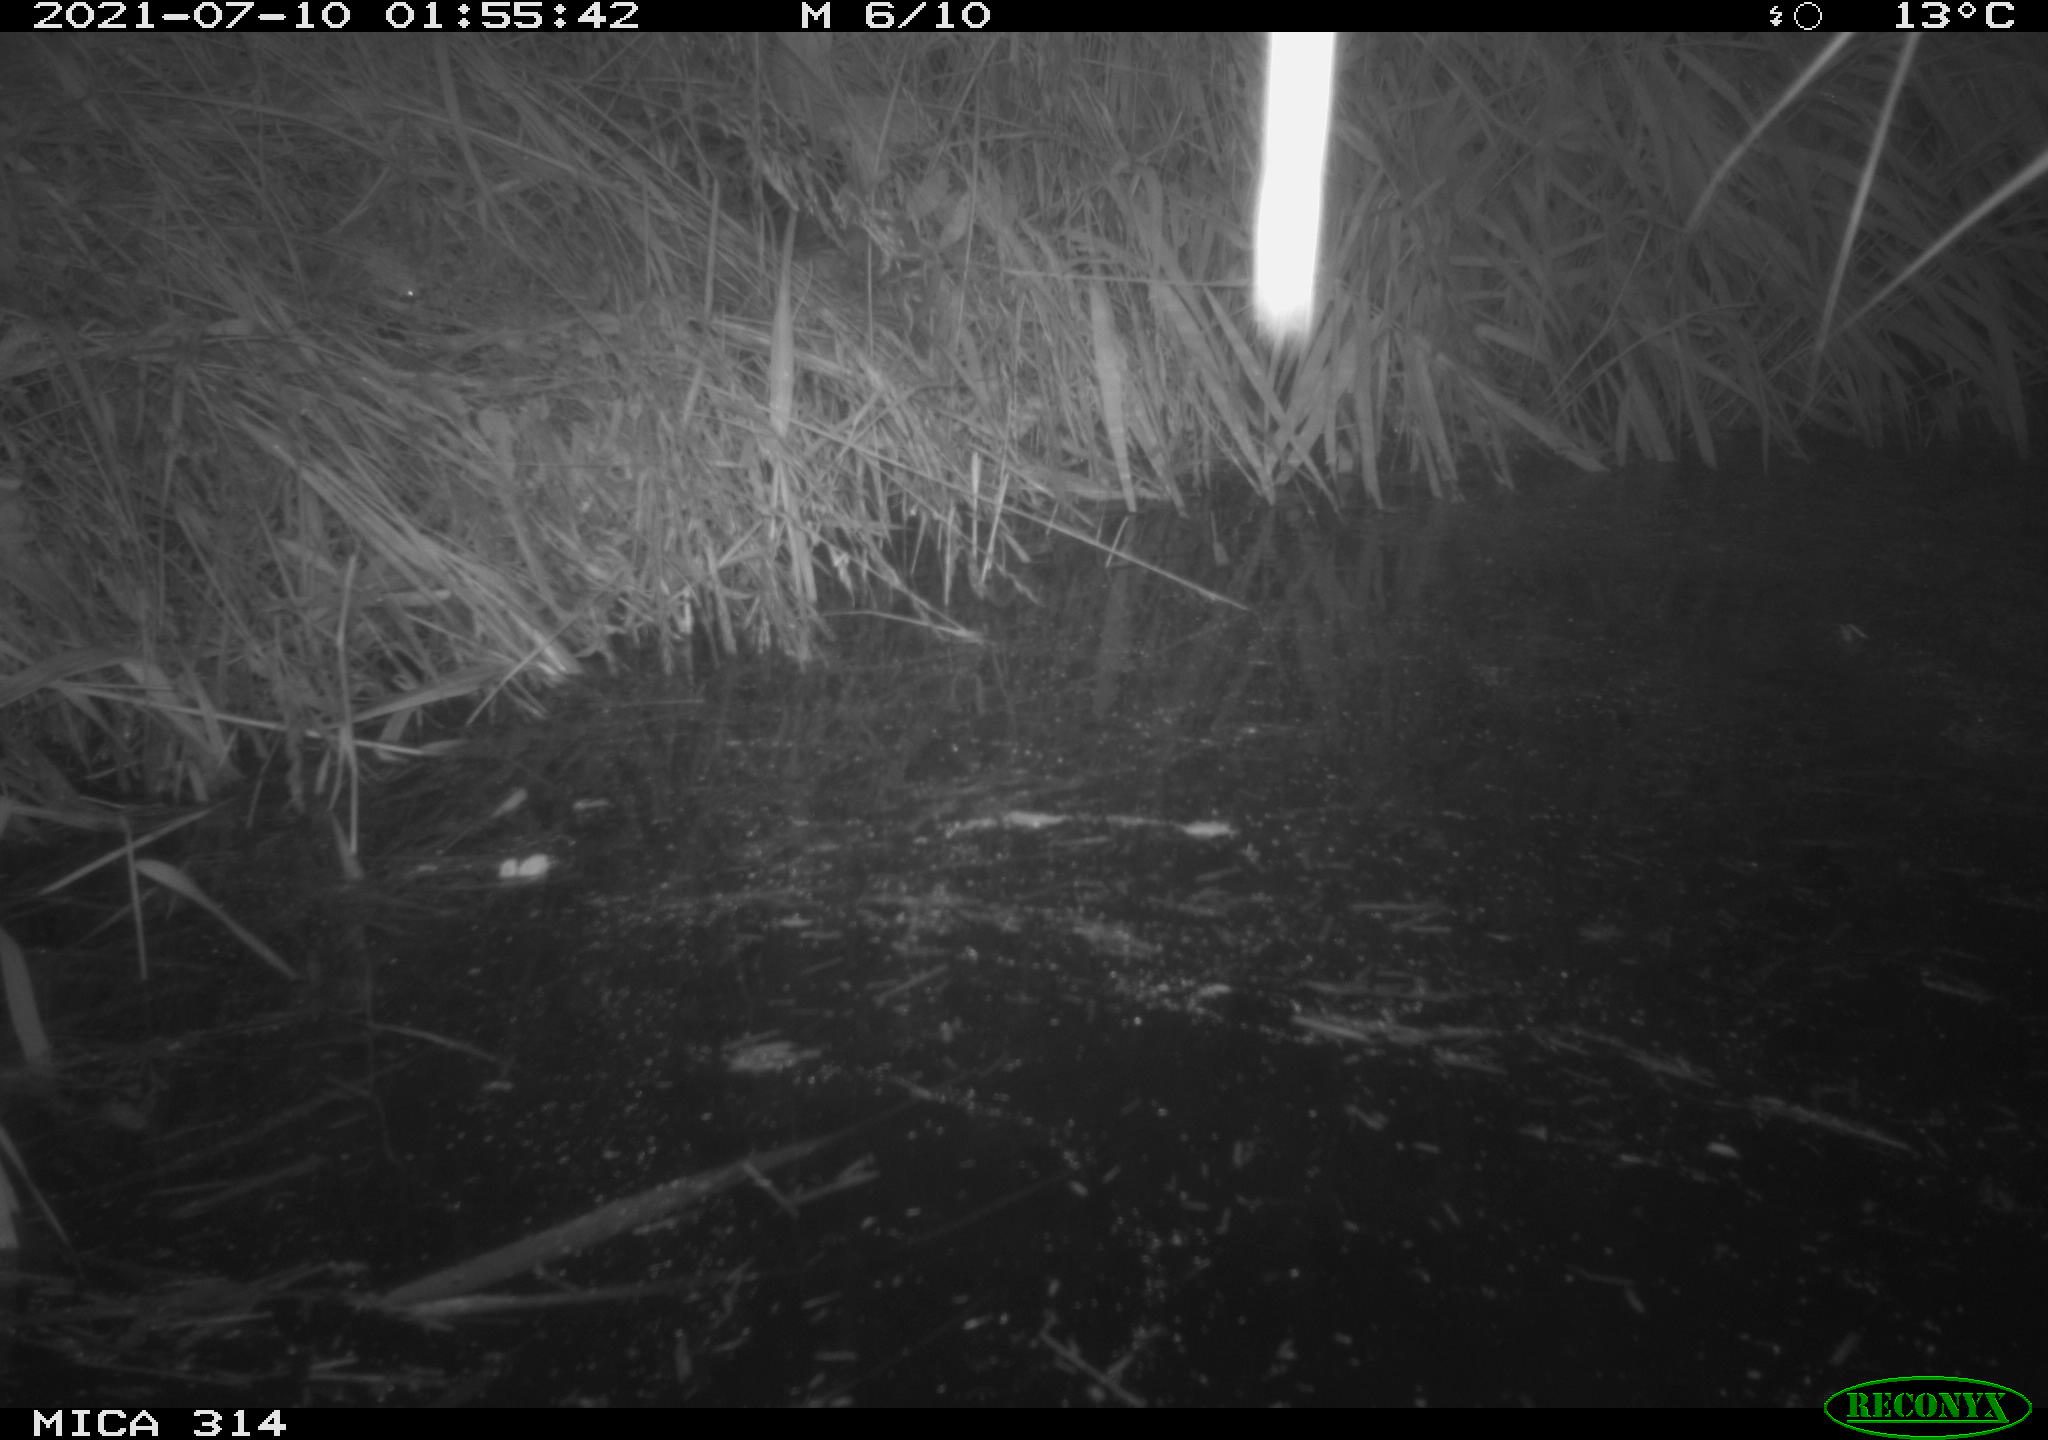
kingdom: Animalia
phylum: Chordata
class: Mammalia
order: Rodentia
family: Muridae
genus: Rattus
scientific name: Rattus norvegicus
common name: Brown rat
